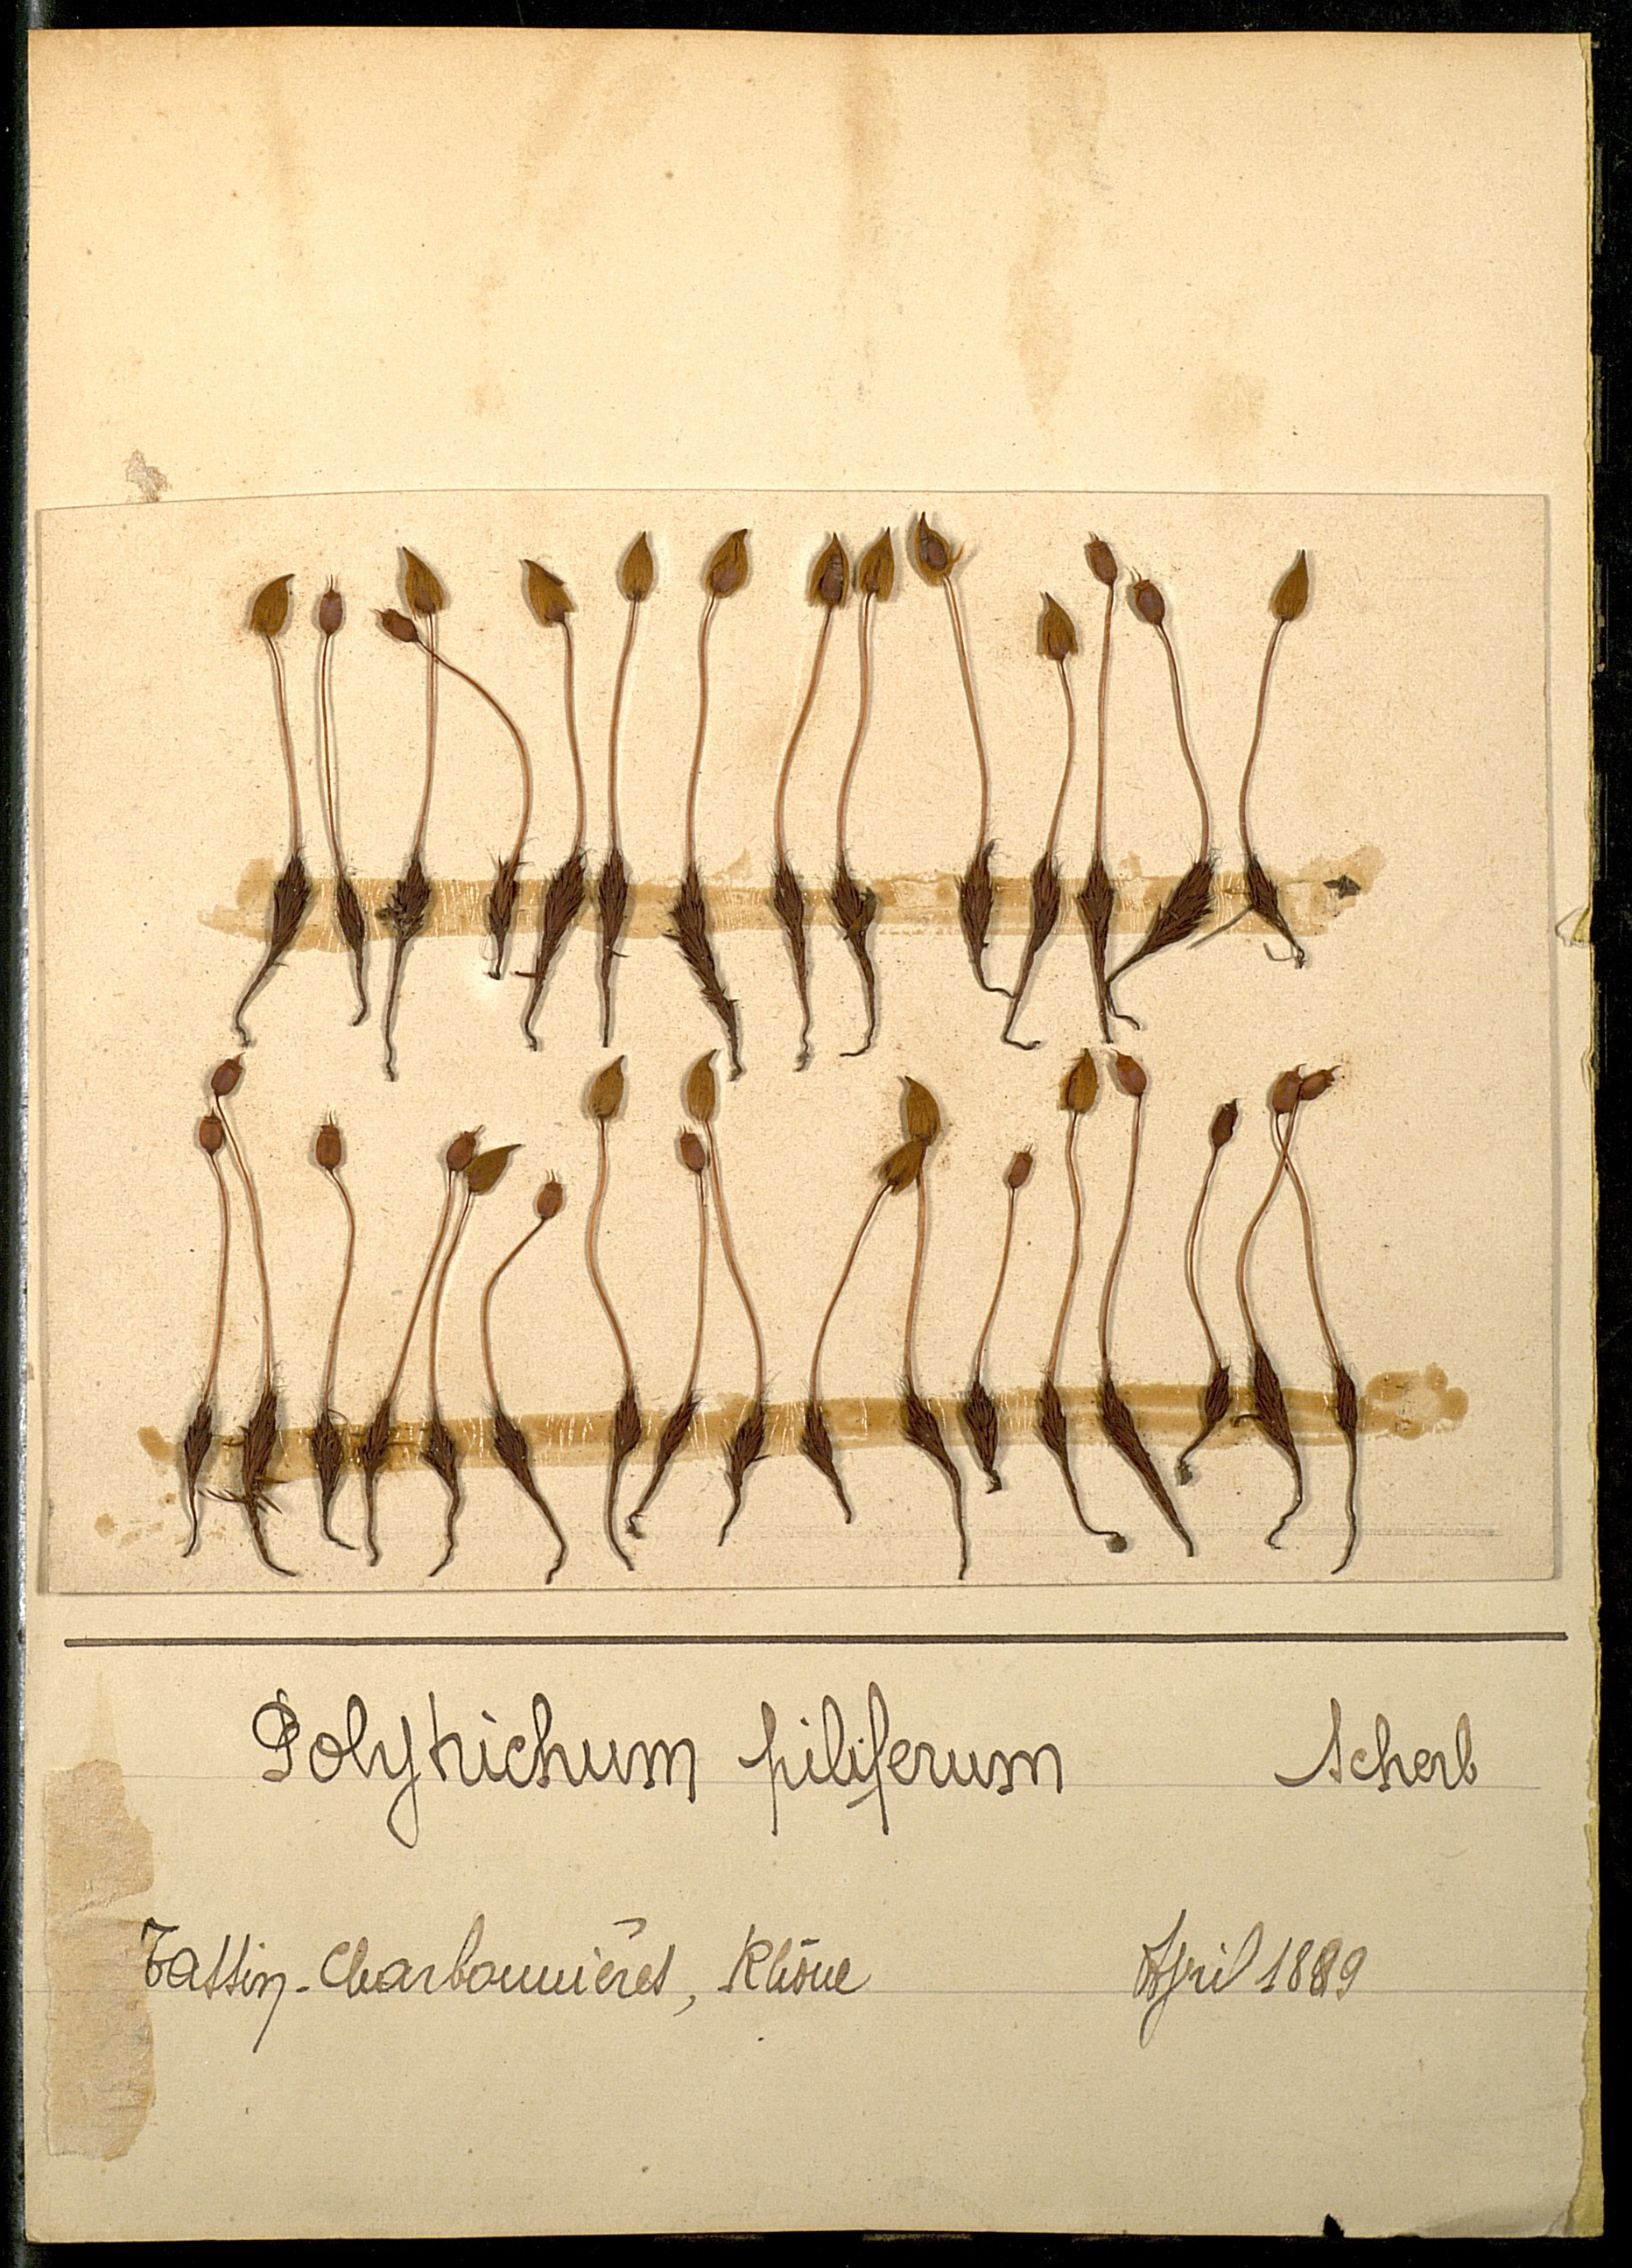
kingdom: Plantae
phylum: Bryophyta
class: Polytrichopsida
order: Polytrichales
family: Polytrichaceae
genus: Polytrichum
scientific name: Polytrichum piliferum
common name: Bristly haircap
